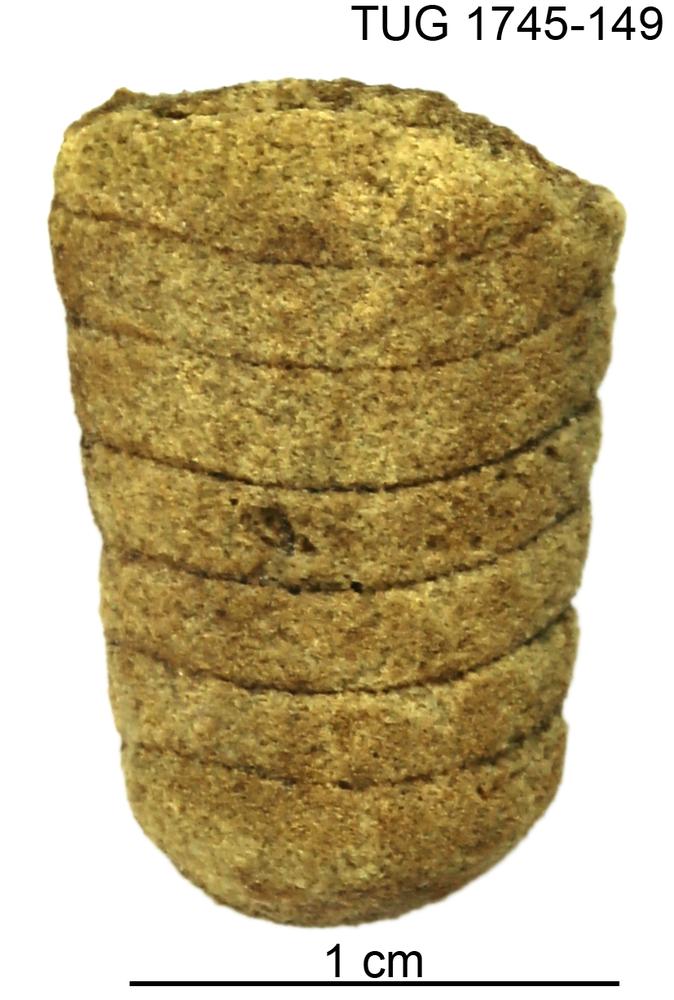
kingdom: Animalia
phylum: Mollusca
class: Cephalopoda
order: Orthocerida
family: Orthoceratidae
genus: Orthoceras
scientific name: Orthoceras
